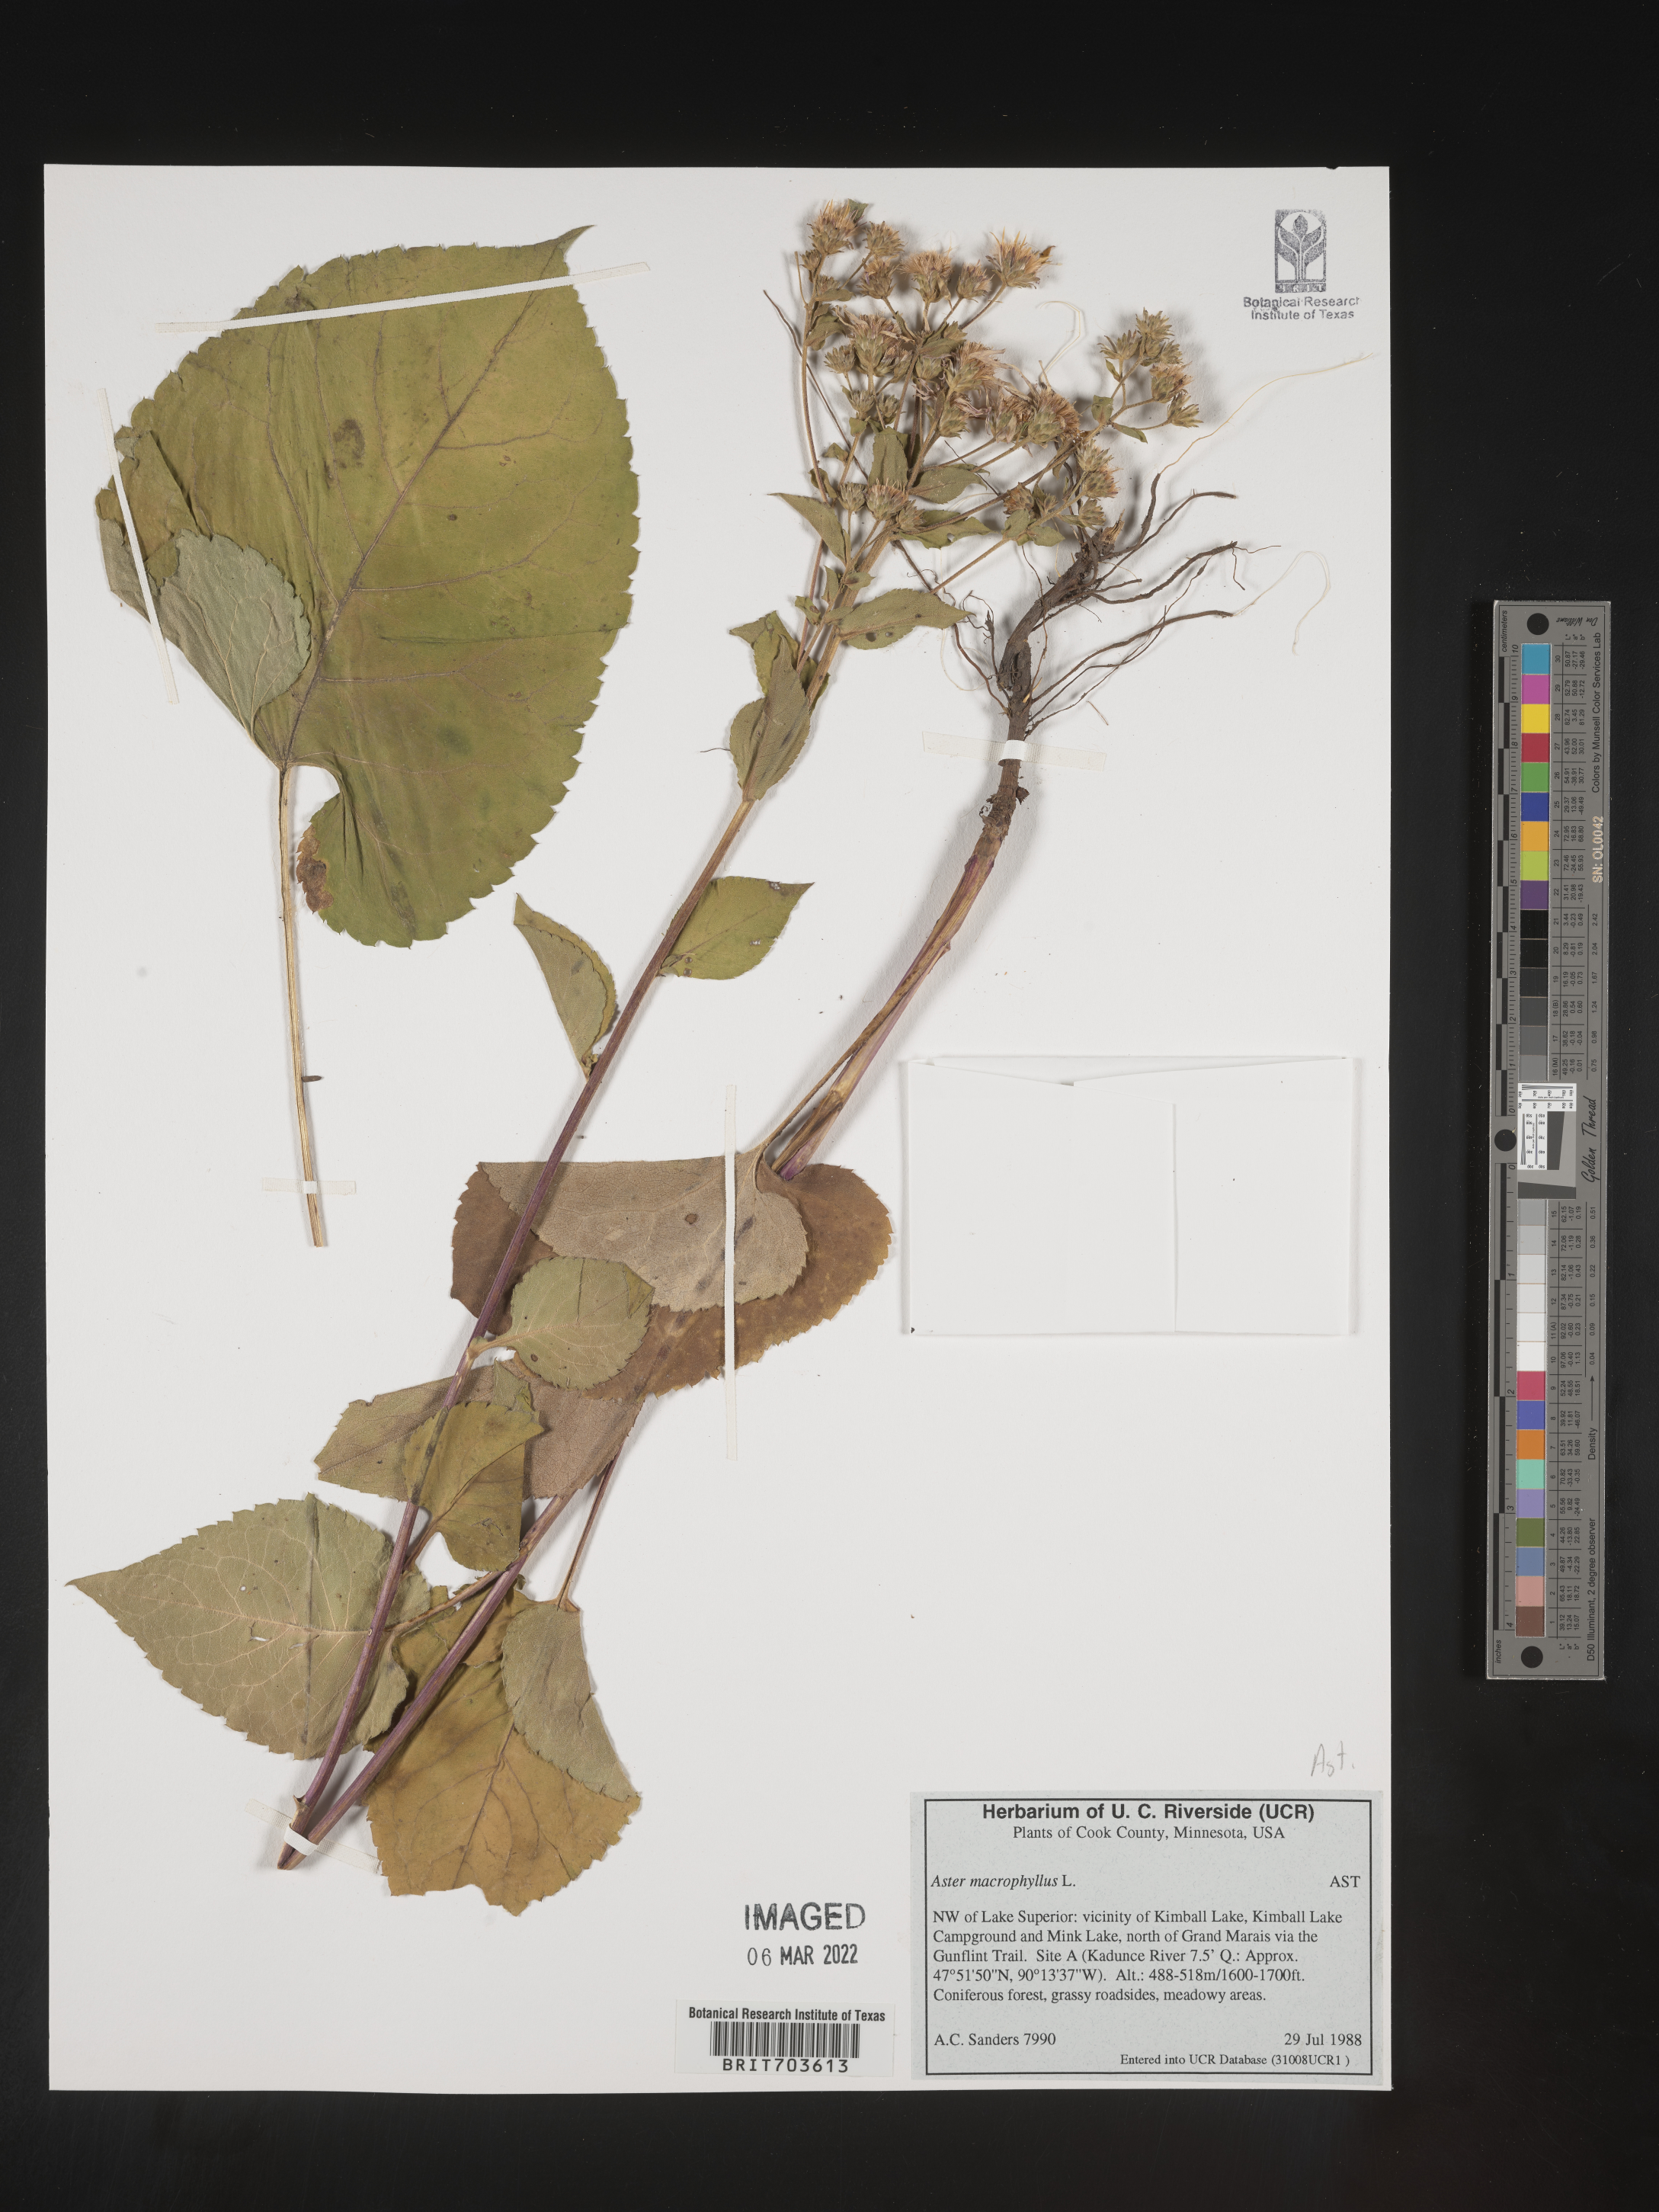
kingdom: Plantae
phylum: Tracheophyta
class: Magnoliopsida
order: Asterales
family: Asteraceae
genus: Eurybia
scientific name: Eurybia macrophylla
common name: Big-leaved aster
